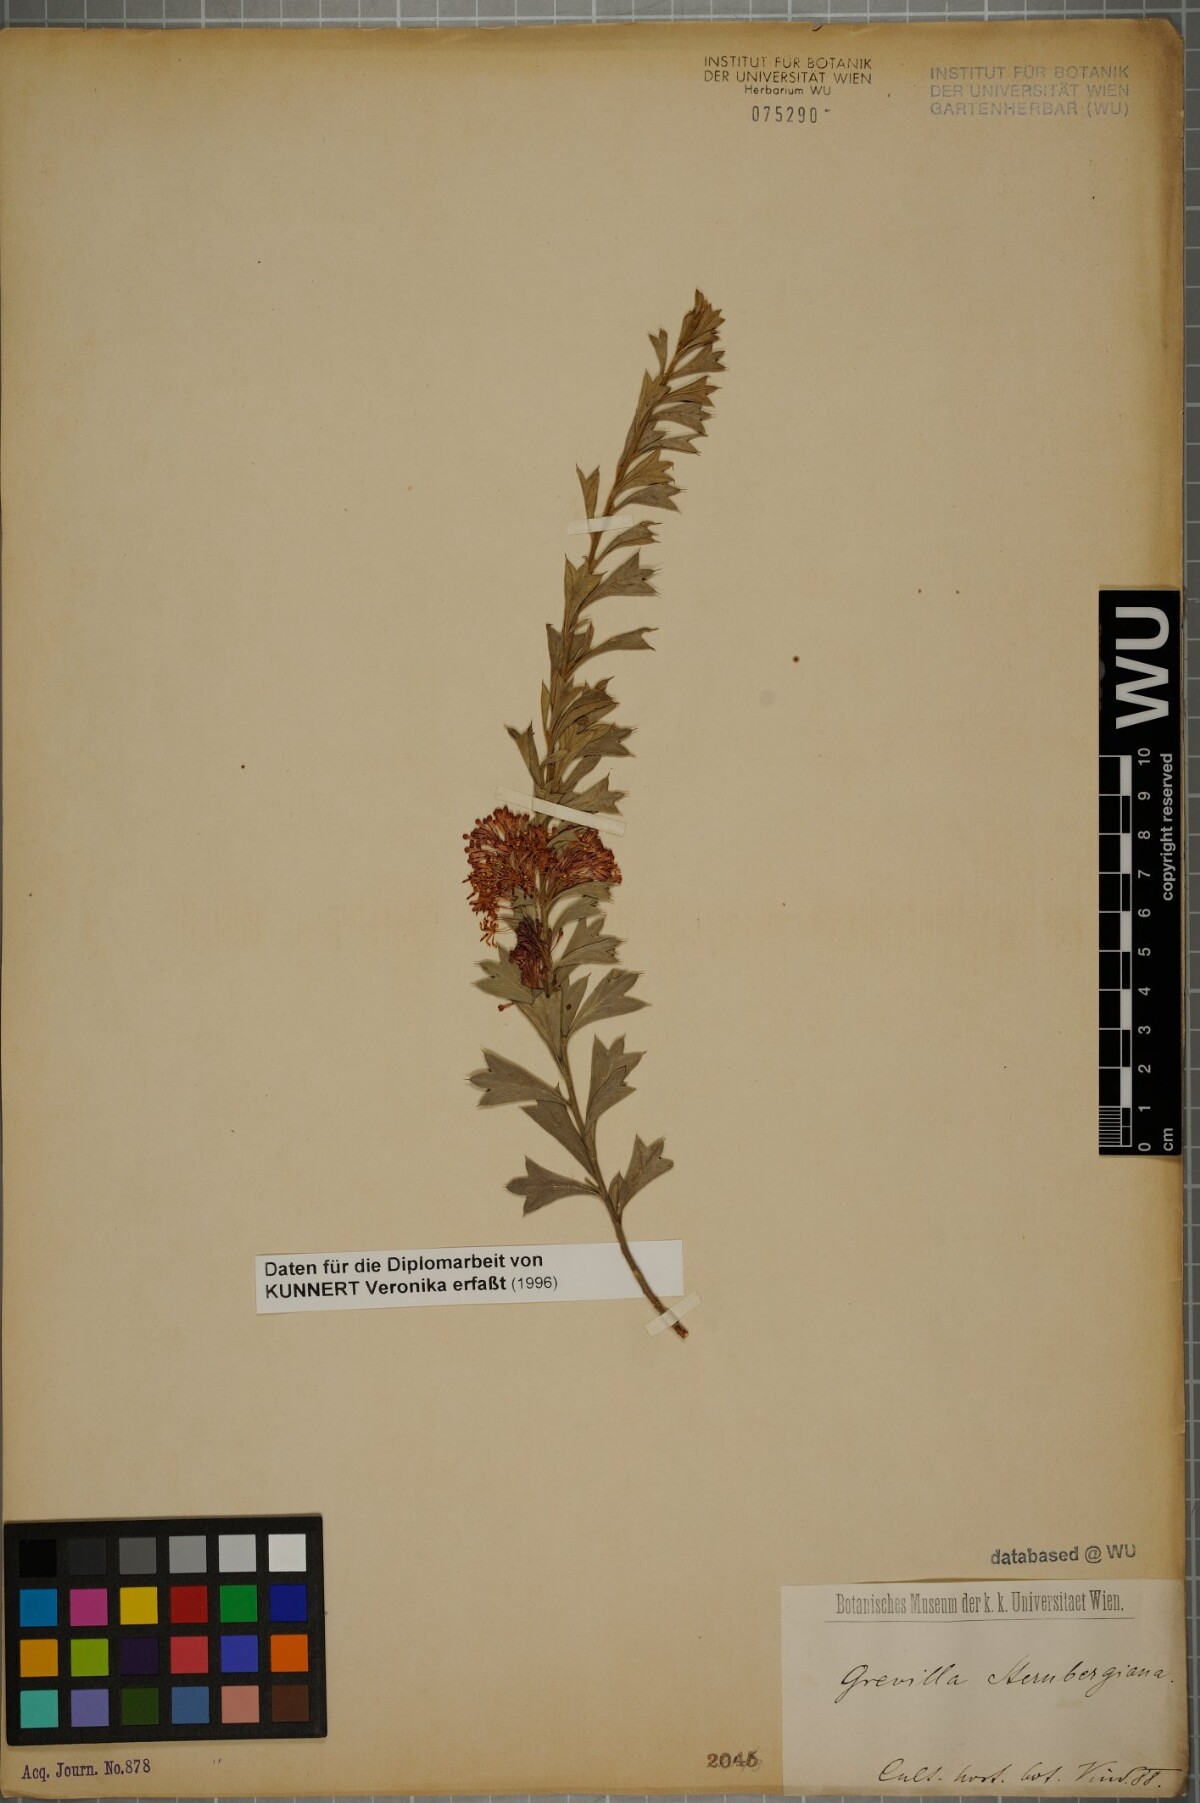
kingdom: Plantae
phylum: Tracheophyta
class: Magnoliopsida
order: Proteales
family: Proteaceae
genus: Grevillea
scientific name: Grevillea crithmifolia
